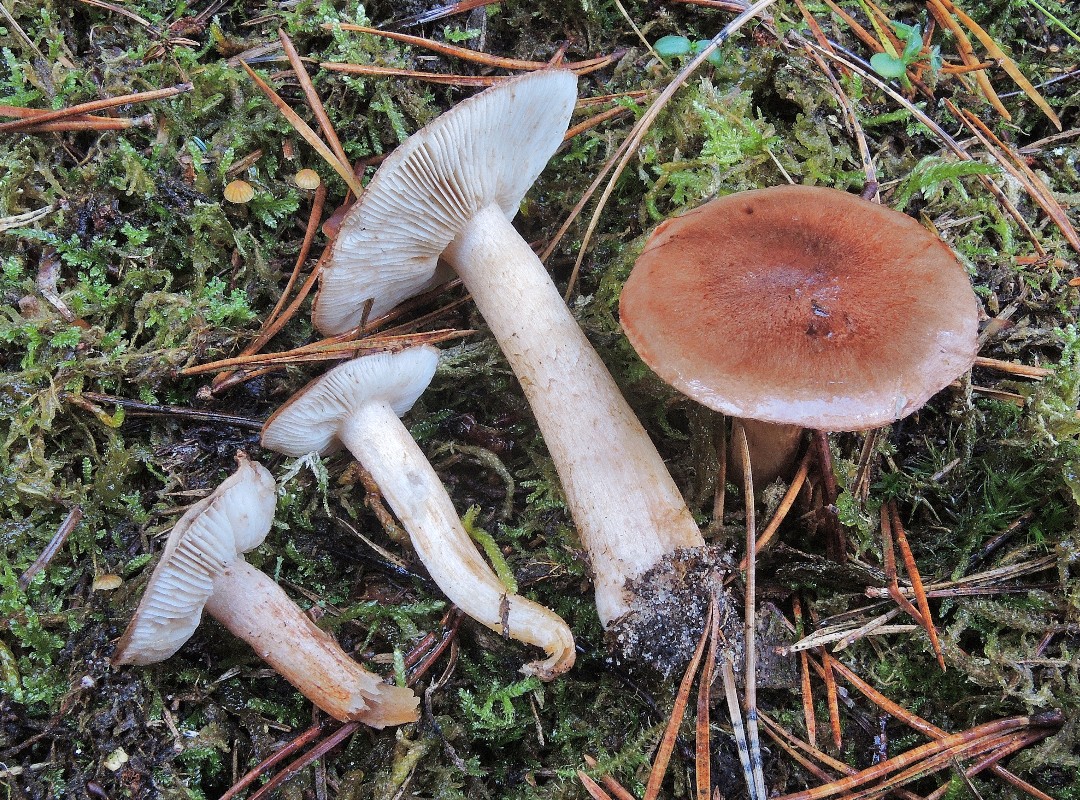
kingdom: Fungi
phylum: Basidiomycota
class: Agaricomycetes
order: Agaricales
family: Tricholomataceae
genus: Tricholoma
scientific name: Tricholoma albobrunneum
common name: kastanie-ridderhat
